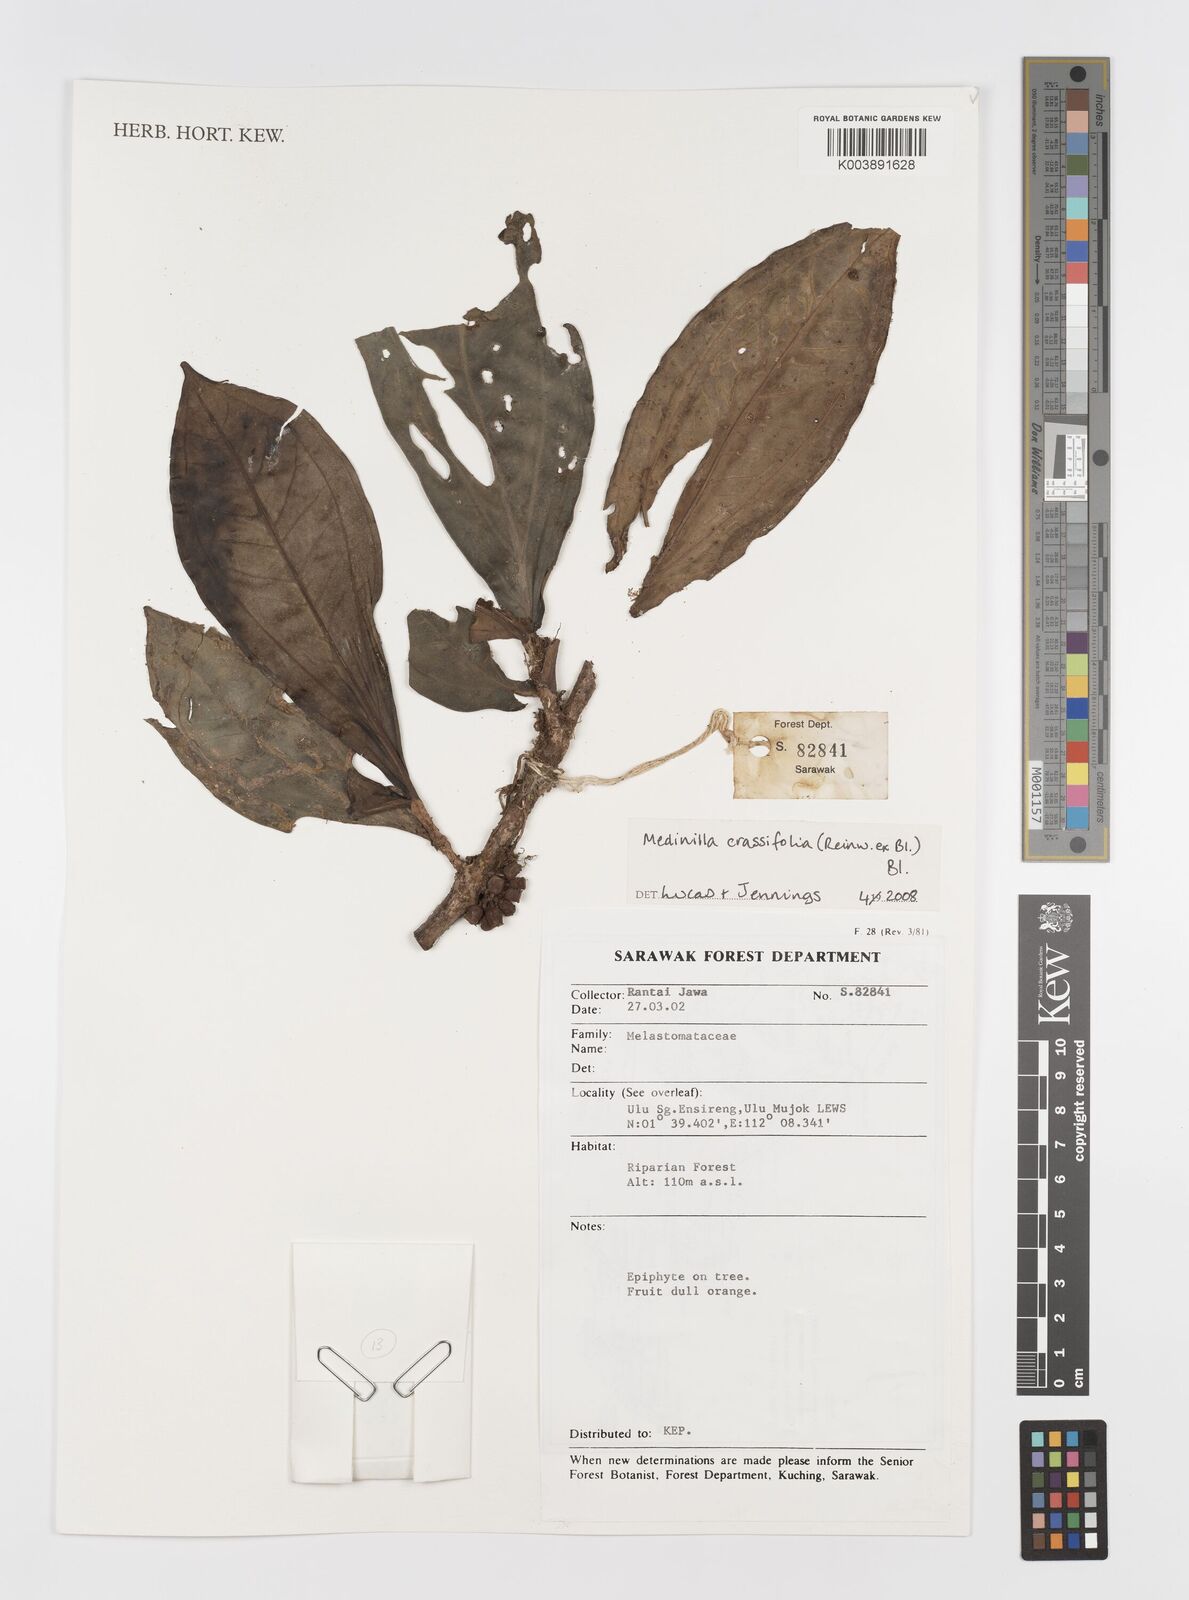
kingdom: Plantae
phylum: Tracheophyta
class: Magnoliopsida
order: Myrtales
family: Melastomataceae
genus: Medinilla
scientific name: Medinilla crassifolia
